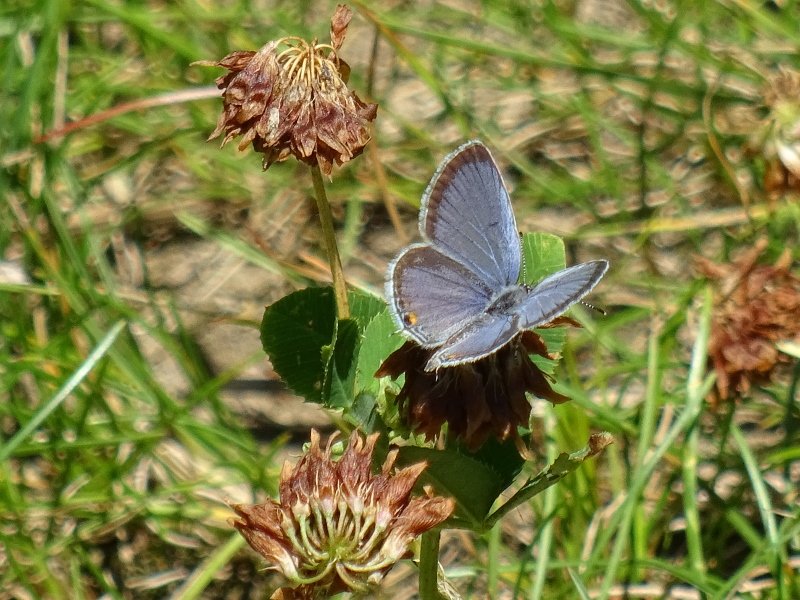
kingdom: Animalia
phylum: Arthropoda
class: Insecta
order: Lepidoptera
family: Lycaenidae
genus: Elkalyce
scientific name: Elkalyce comyntas
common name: Eastern Tailed-Blue
